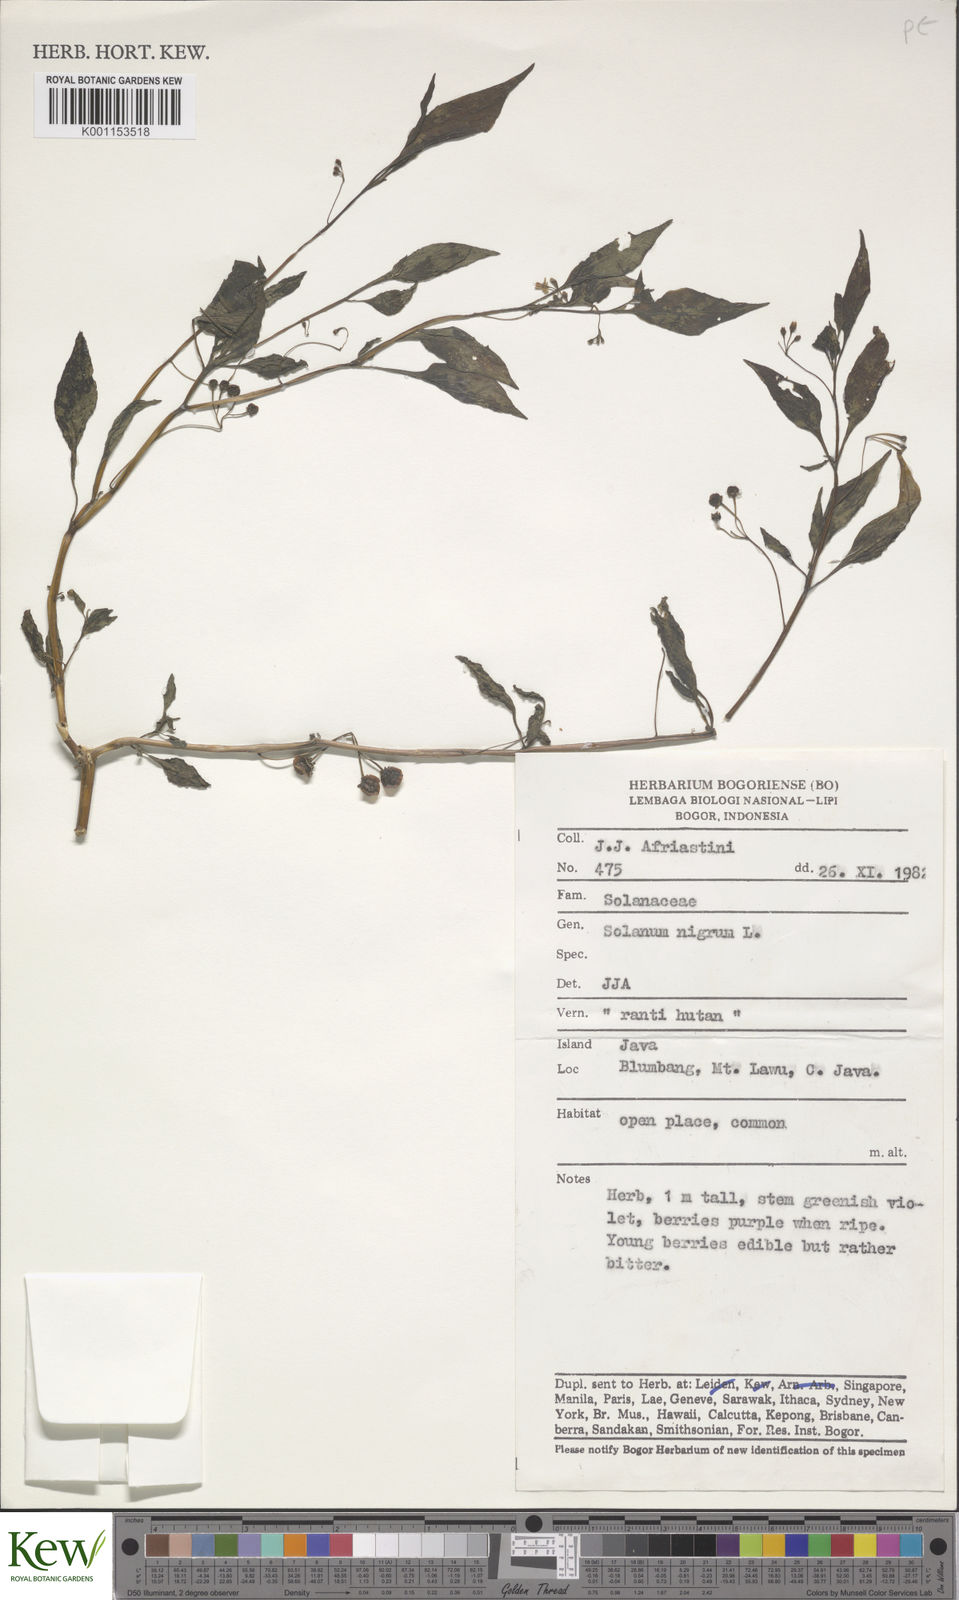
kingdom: Plantae
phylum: Tracheophyta
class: Magnoliopsida
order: Solanales
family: Solanaceae
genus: Solanum
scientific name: Solanum nigrum
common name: Black nightshade
